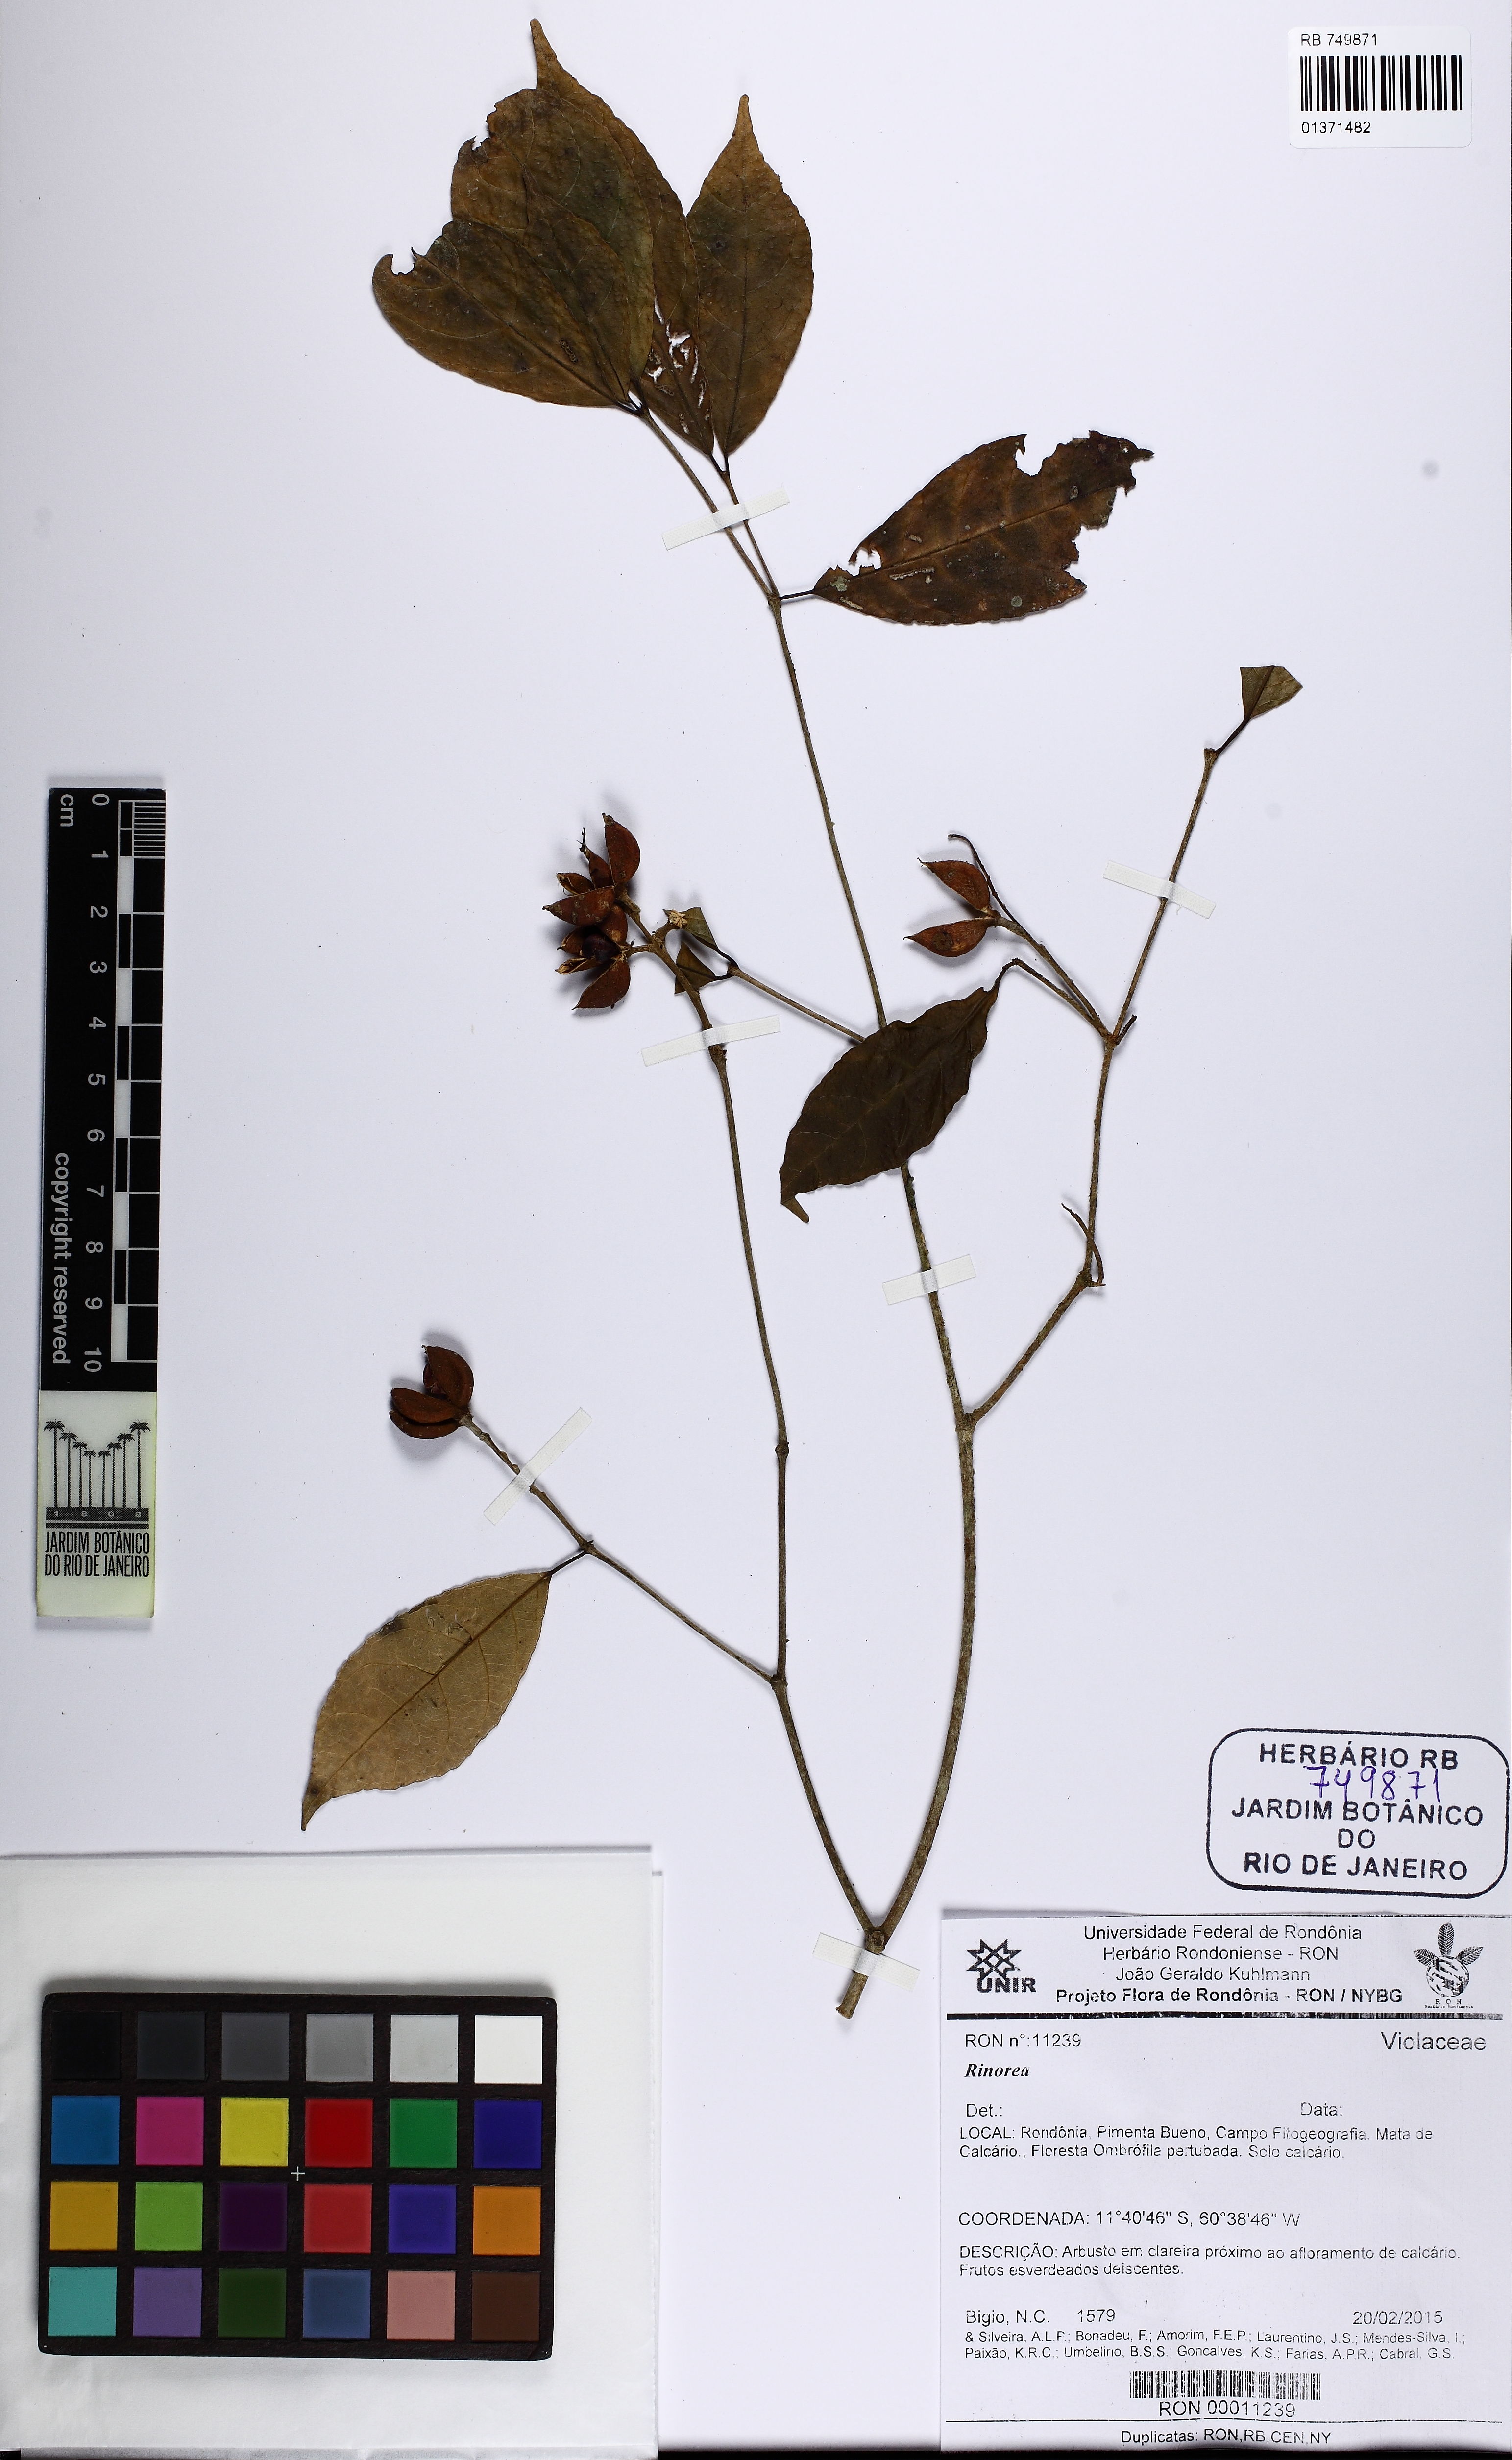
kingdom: Plantae
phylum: Tracheophyta
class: Magnoliopsida
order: Malpighiales
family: Violaceae
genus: Rinorea
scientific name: Rinorea
